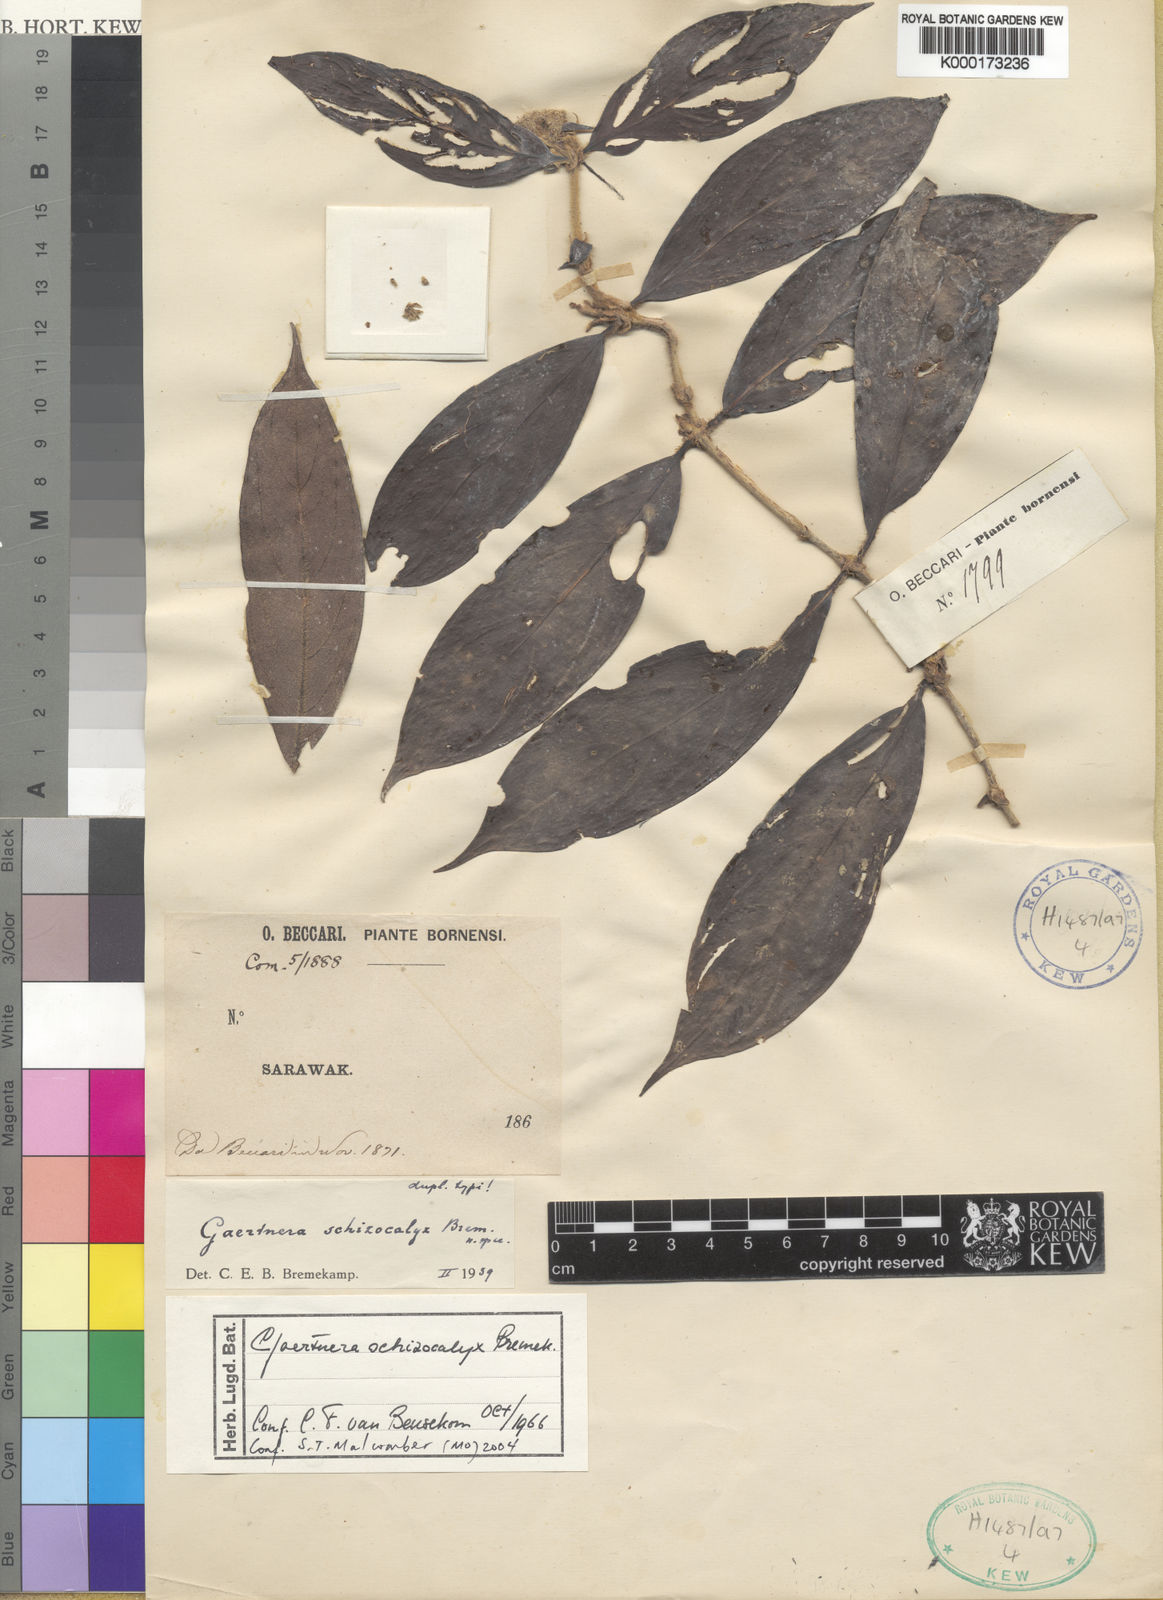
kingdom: Plantae
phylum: Tracheophyta
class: Magnoliopsida
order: Gentianales
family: Rubiaceae
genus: Gaertnera
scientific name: Gaertnera schizocalyx
